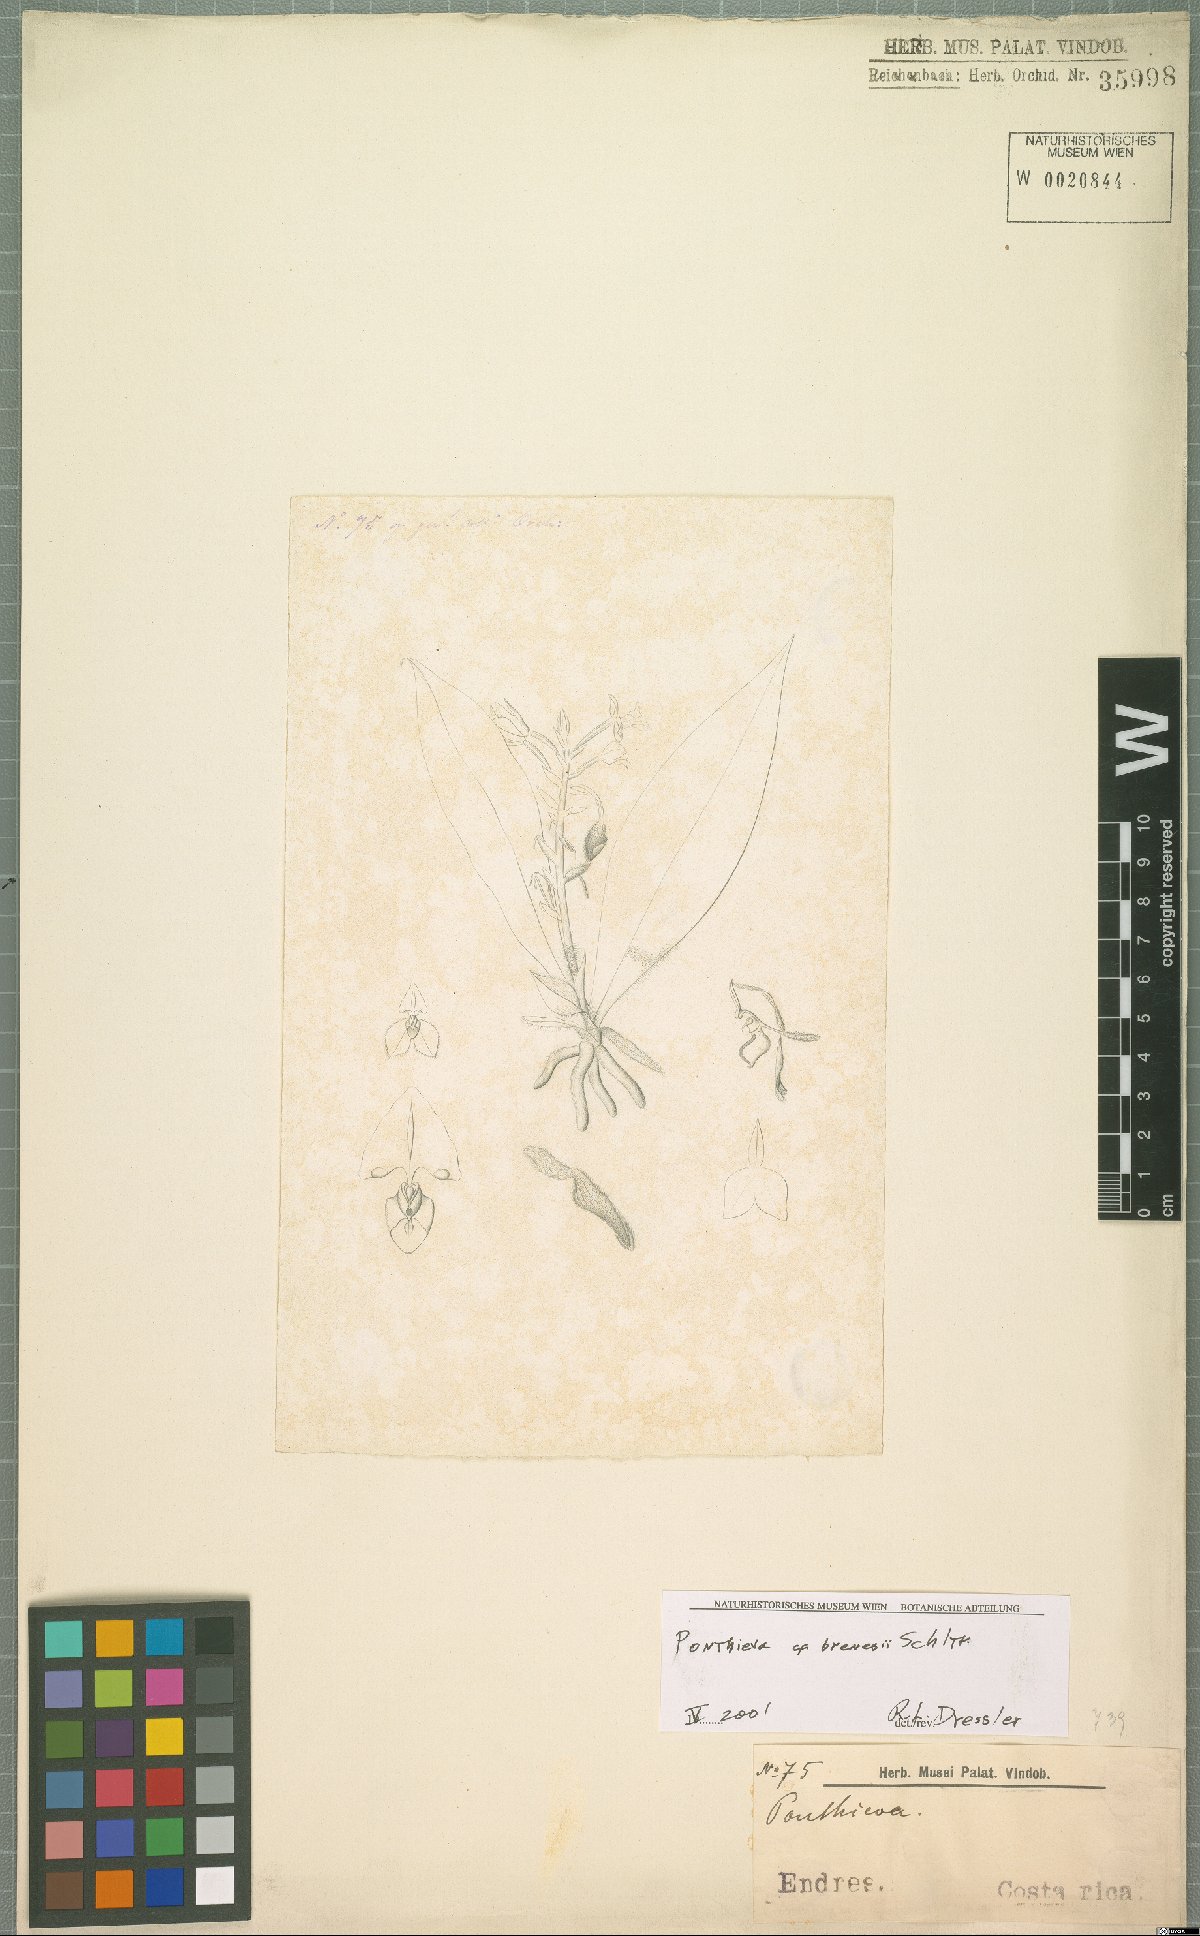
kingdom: Plantae
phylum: Tracheophyta
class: Liliopsida
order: Asparagales
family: Orchidaceae
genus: Ponthieva
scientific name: Ponthieva villosa
